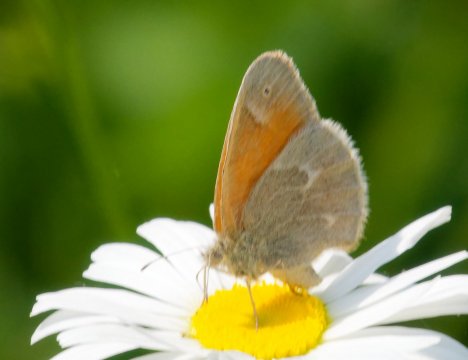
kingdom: Animalia
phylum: Arthropoda
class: Insecta
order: Lepidoptera
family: Nymphalidae
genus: Coenonympha
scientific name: Coenonympha california
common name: California Ringlet
